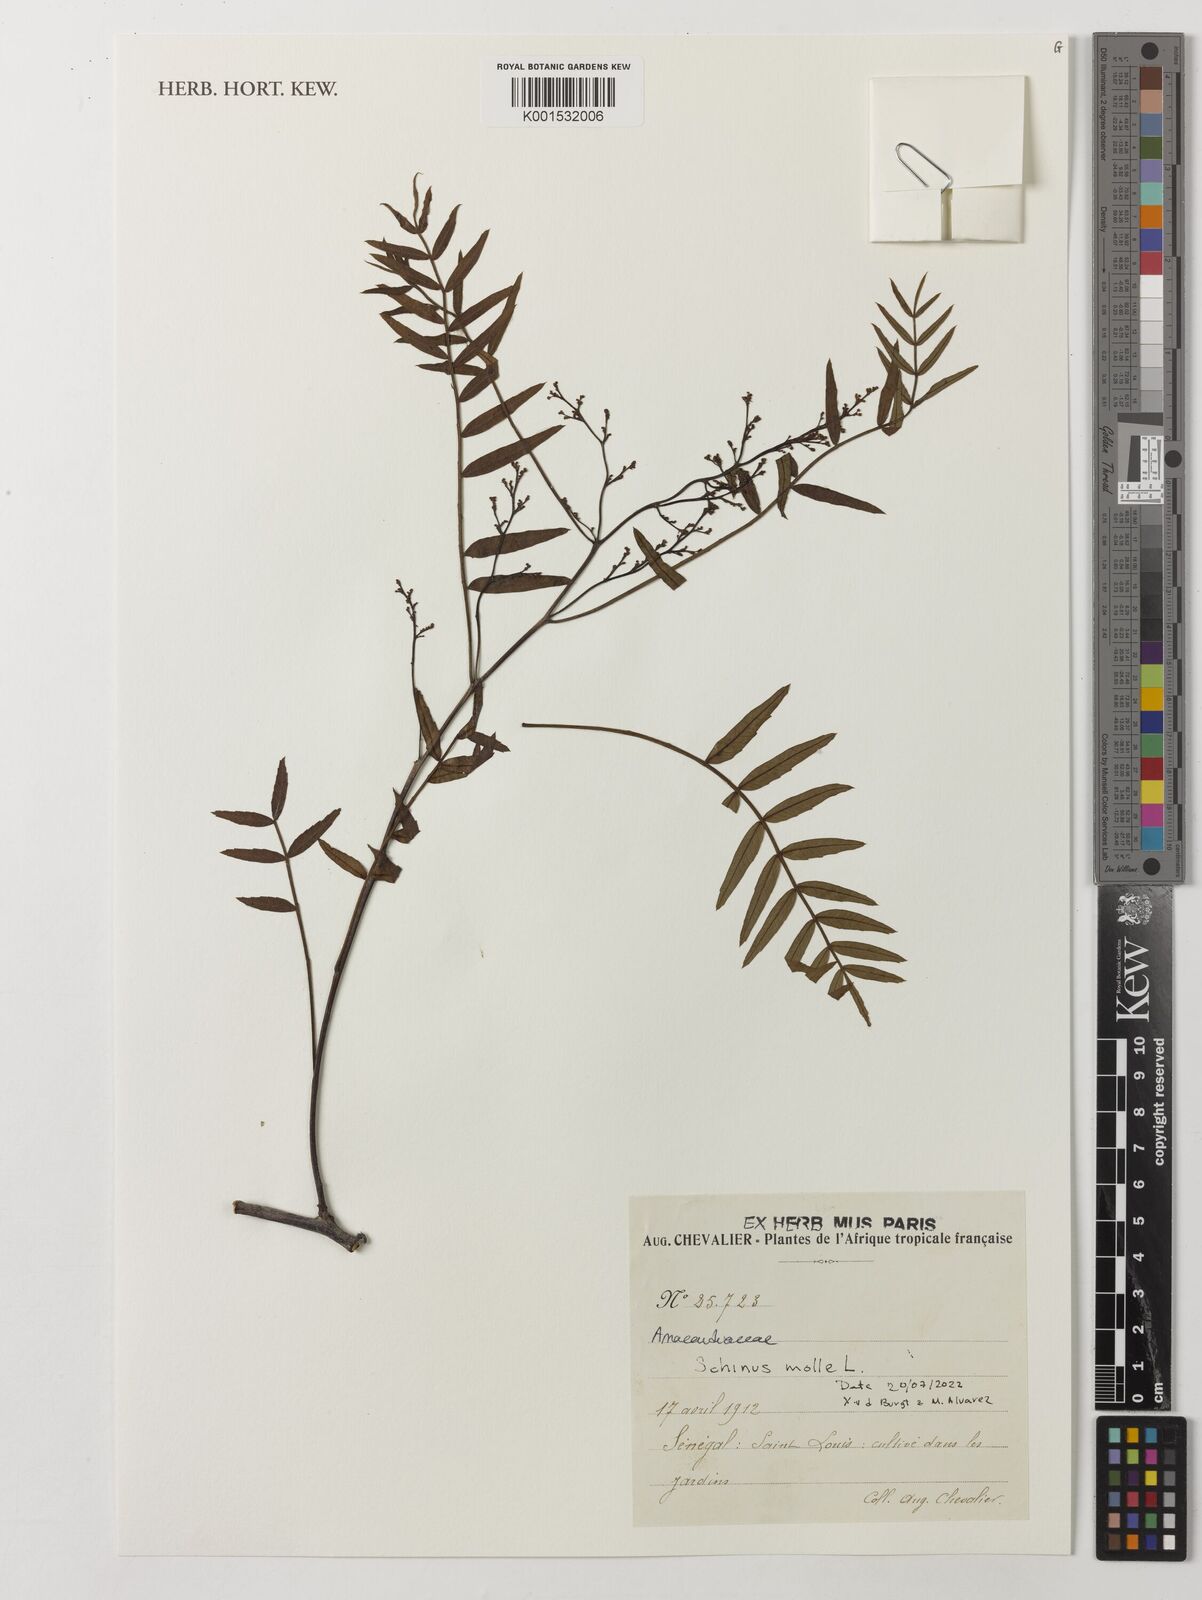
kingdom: Plantae
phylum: Tracheophyta
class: Magnoliopsida
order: Sapindales
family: Anacardiaceae
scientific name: Anacardiaceae
